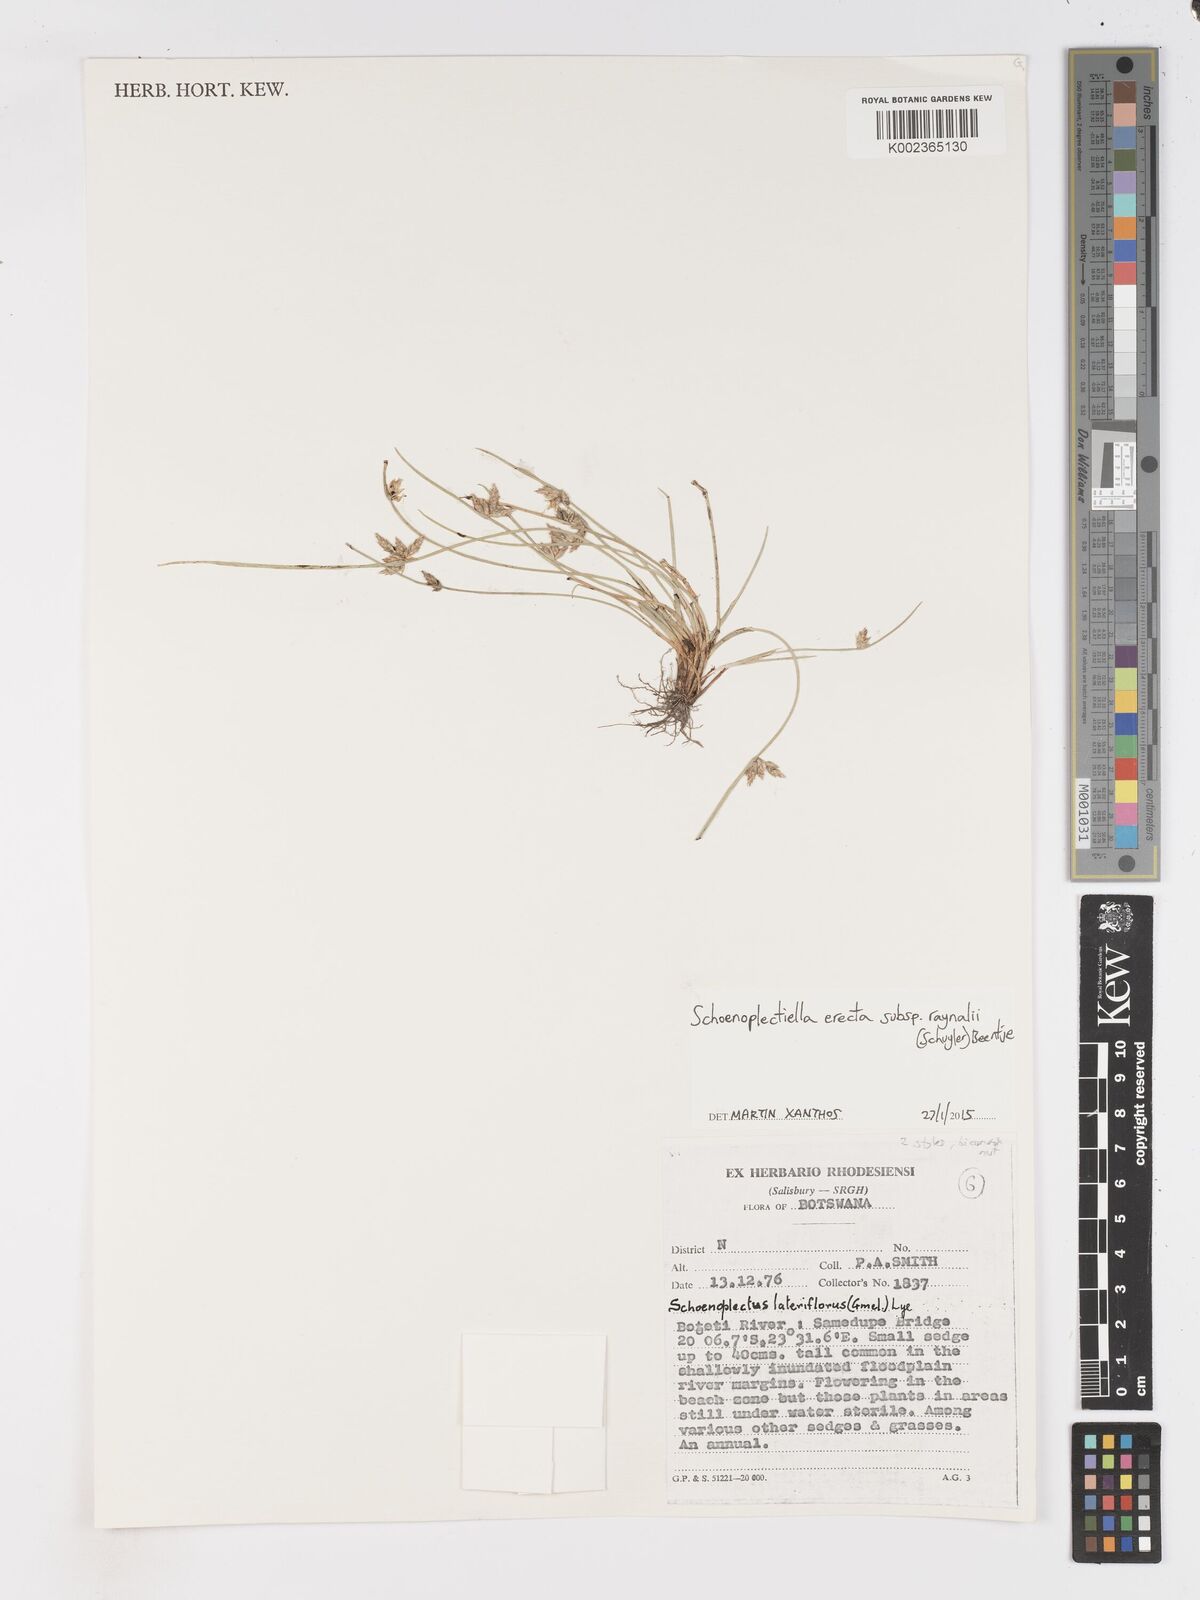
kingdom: Plantae
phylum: Tracheophyta
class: Liliopsida
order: Poales
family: Cyperaceae
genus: Schoenoplectiella
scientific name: Schoenoplectiella erecta
